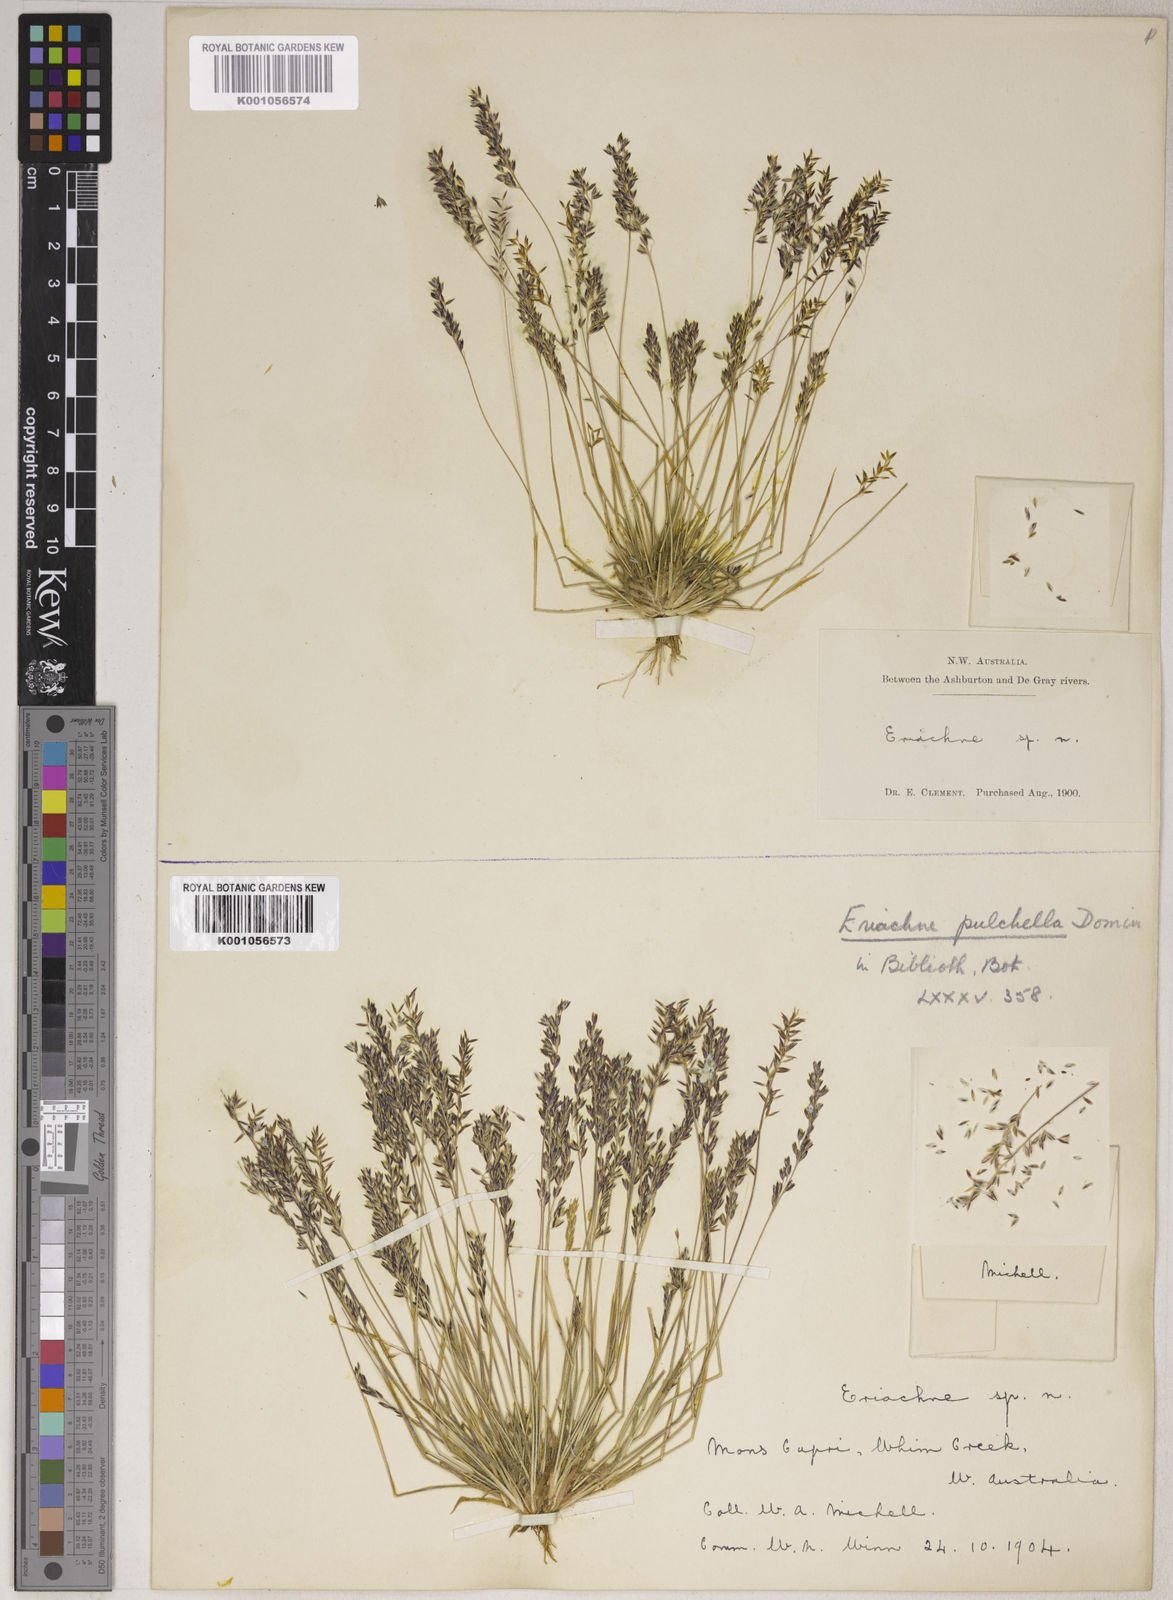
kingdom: Plantae
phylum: Tracheophyta
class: Liliopsida
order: Poales
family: Poaceae
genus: Eriachne
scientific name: Eriachne pulchella
